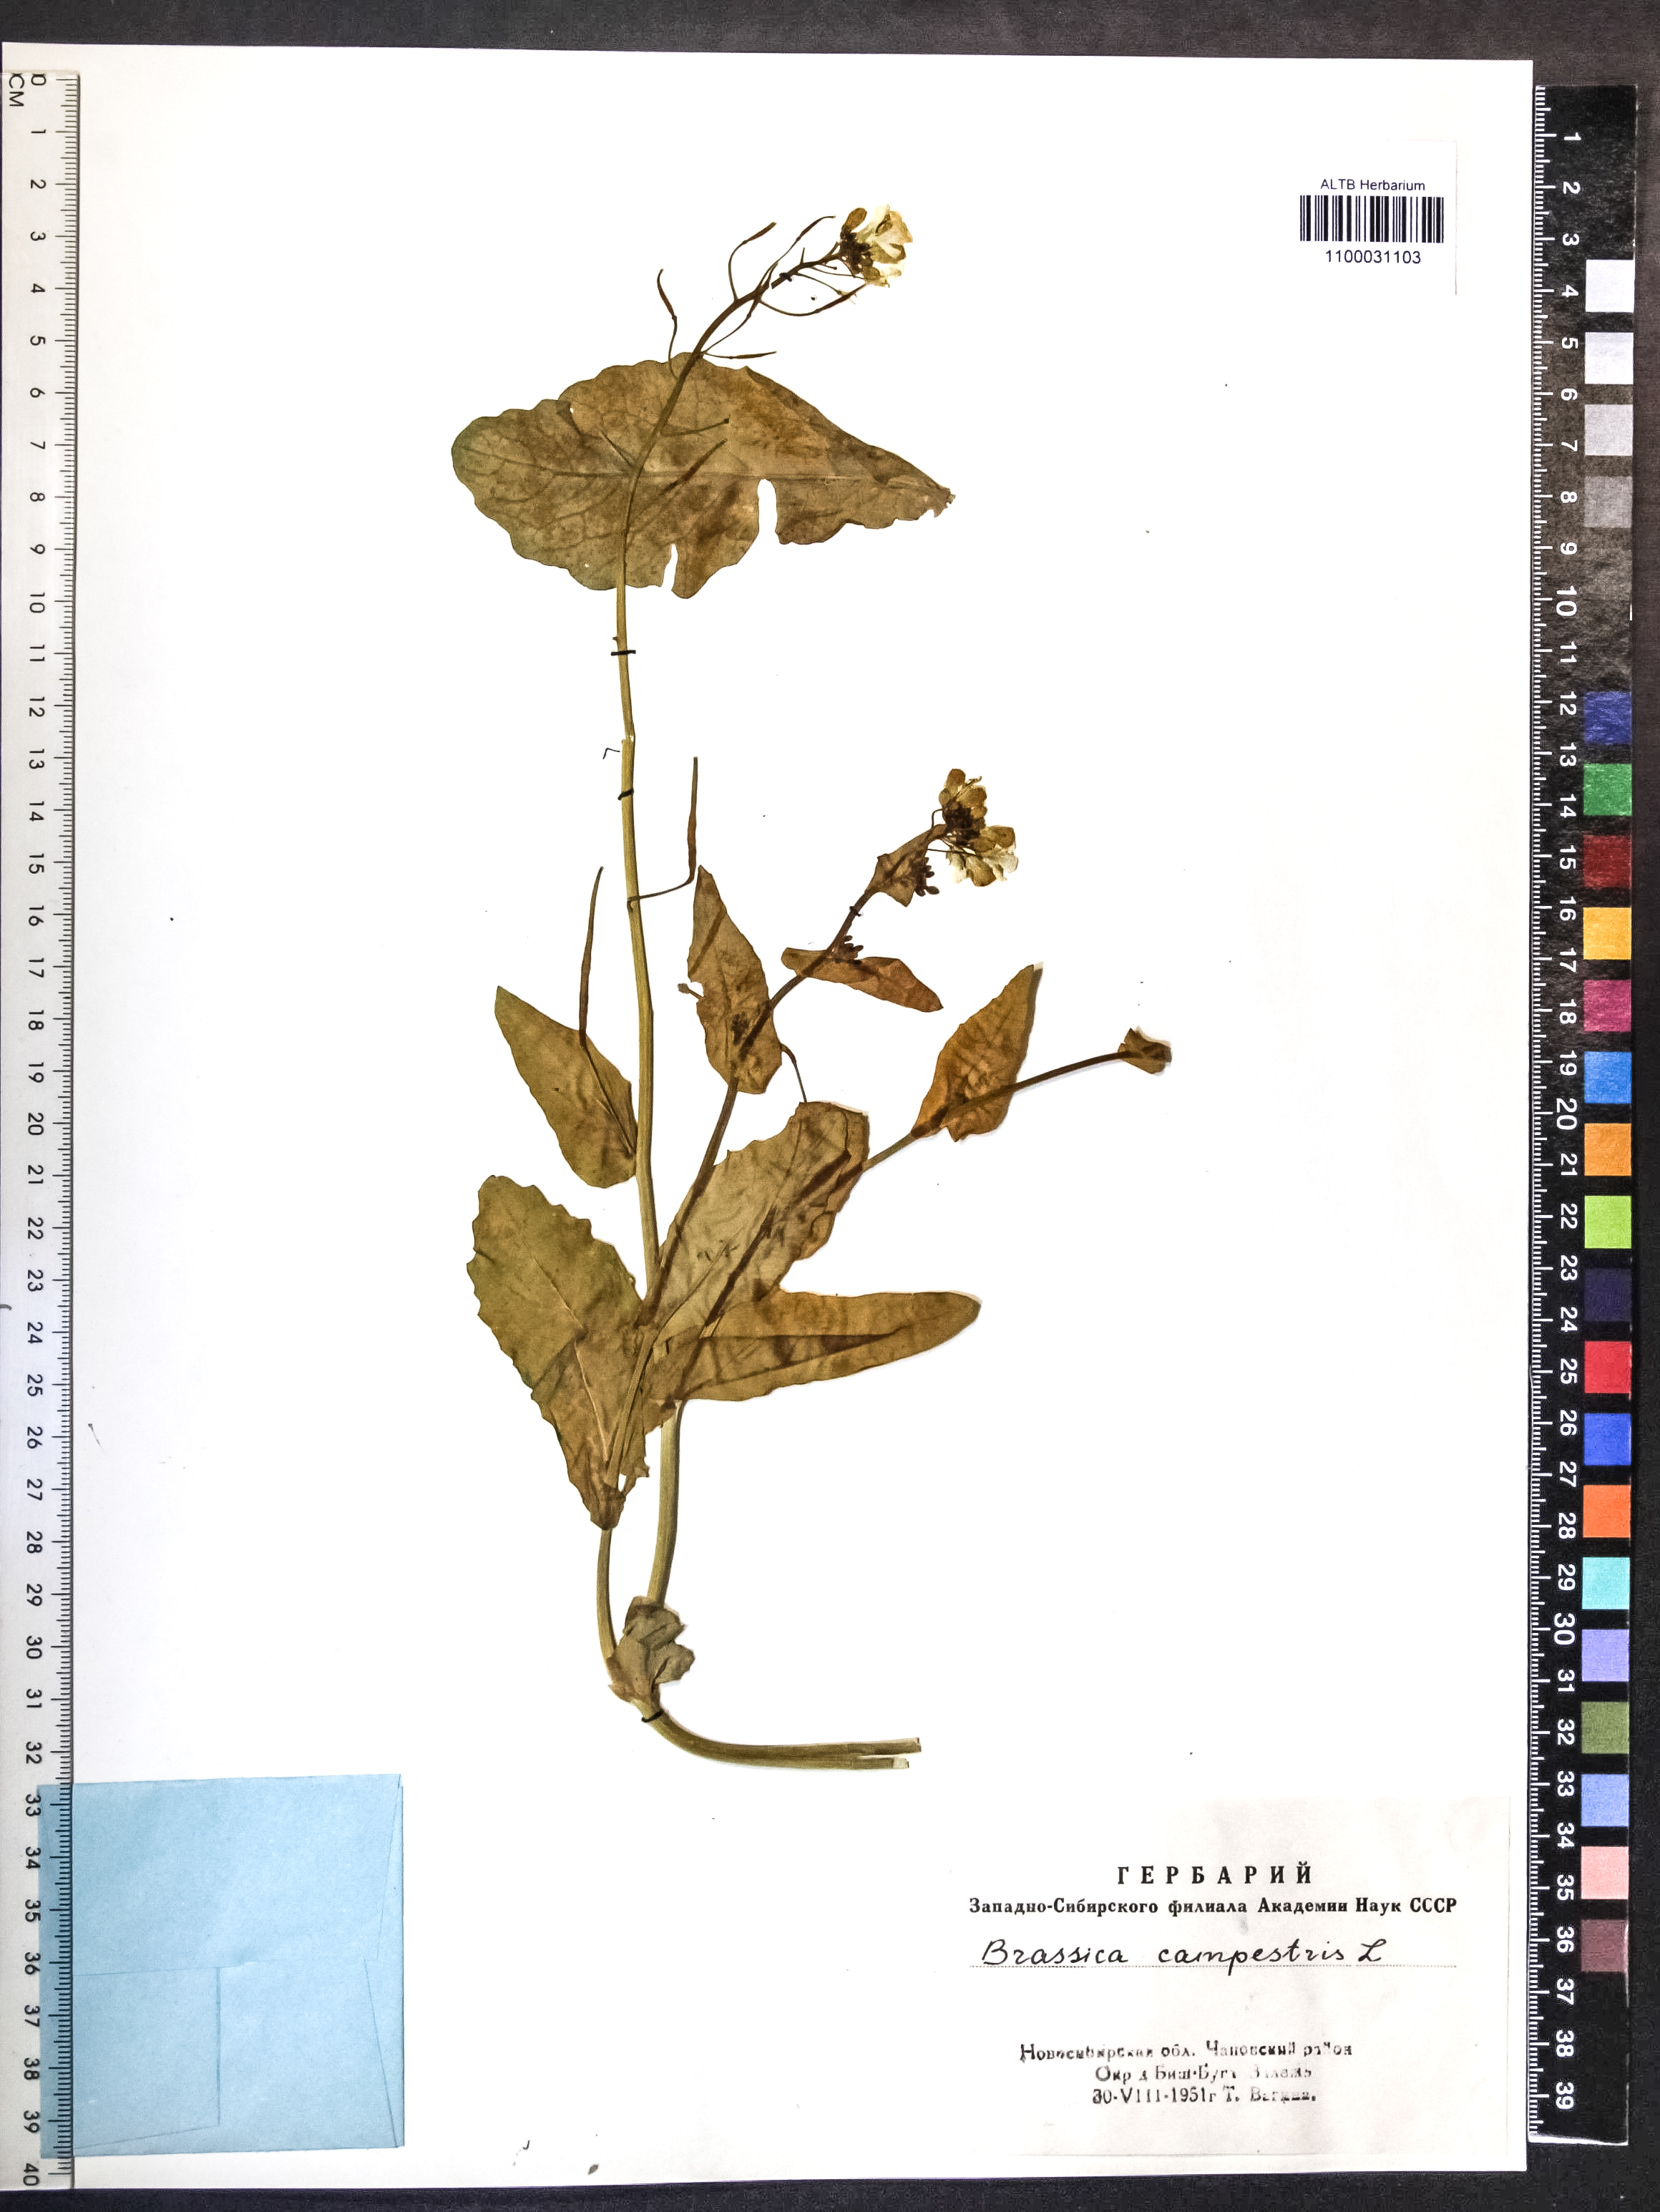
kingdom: Plantae
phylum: Tracheophyta
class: Magnoliopsida
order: Brassicales
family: Brassicaceae
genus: Brassica
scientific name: Brassica rapa
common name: Field mustard
